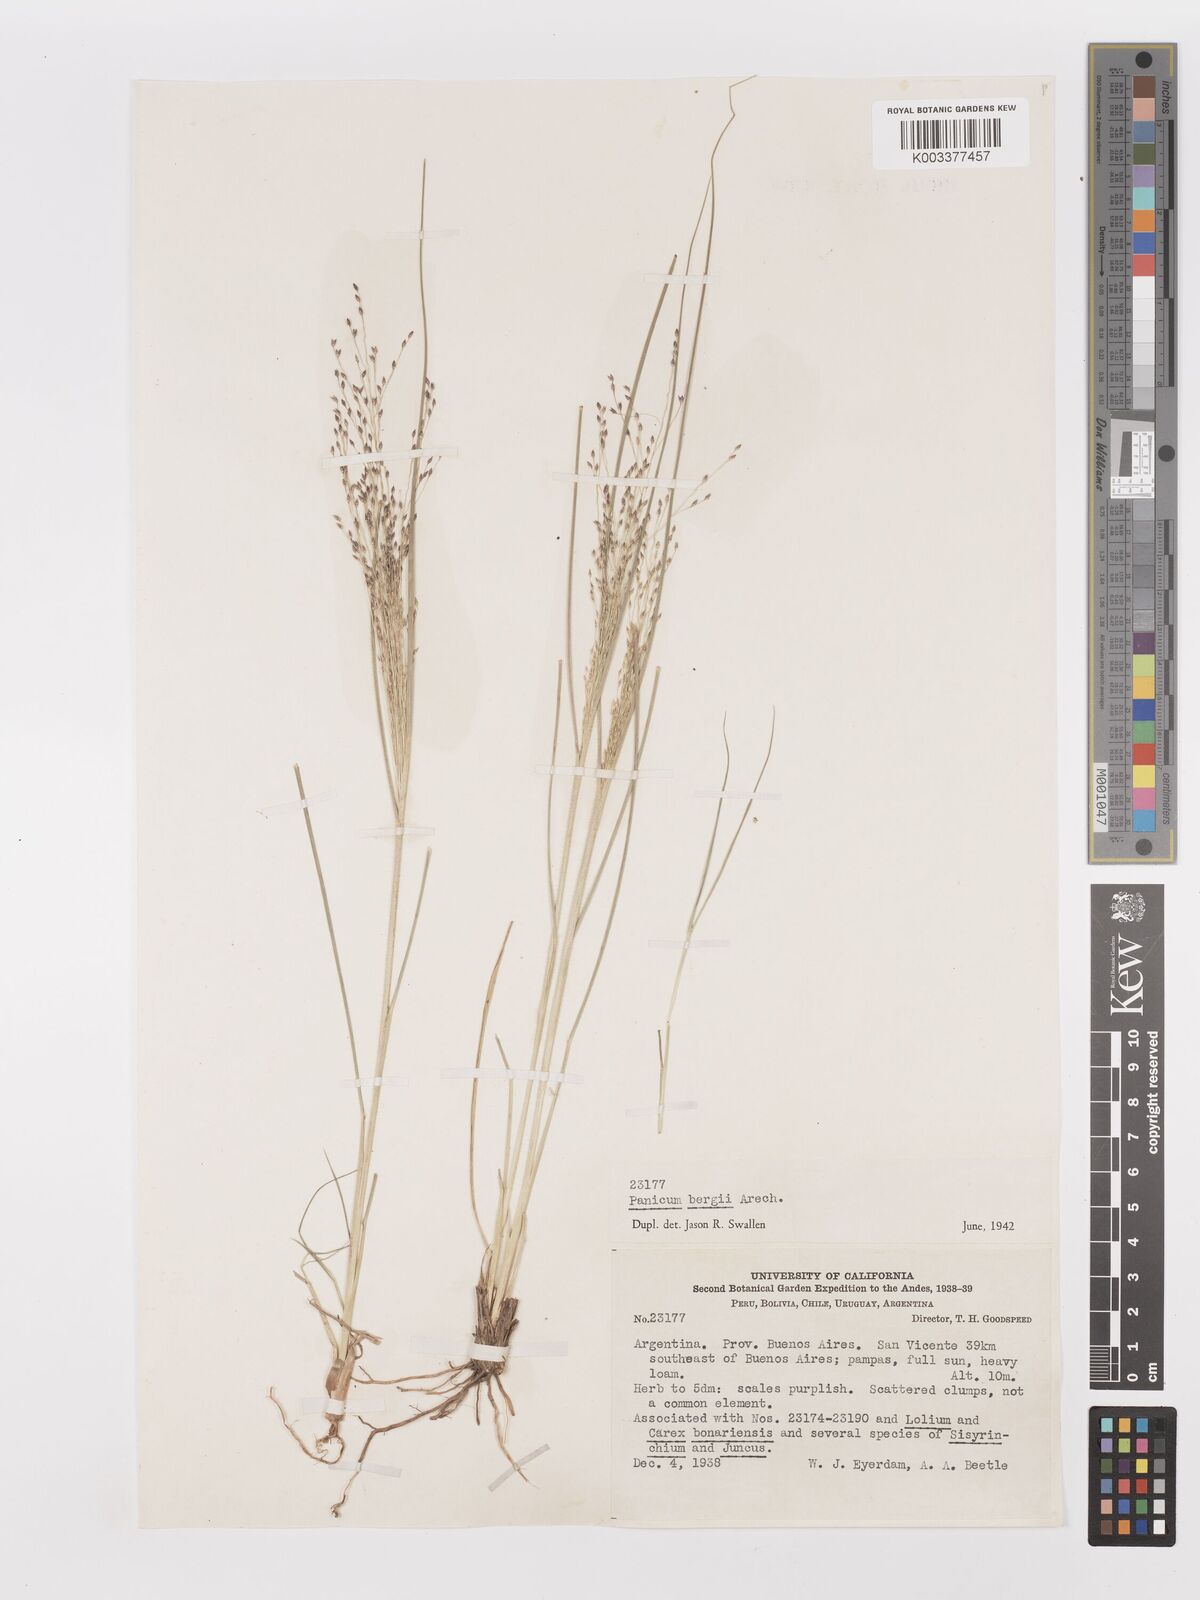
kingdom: Plantae
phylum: Tracheophyta
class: Liliopsida
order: Poales
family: Poaceae
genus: Panicum
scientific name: Panicum bergii
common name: Berg's panicgrass
